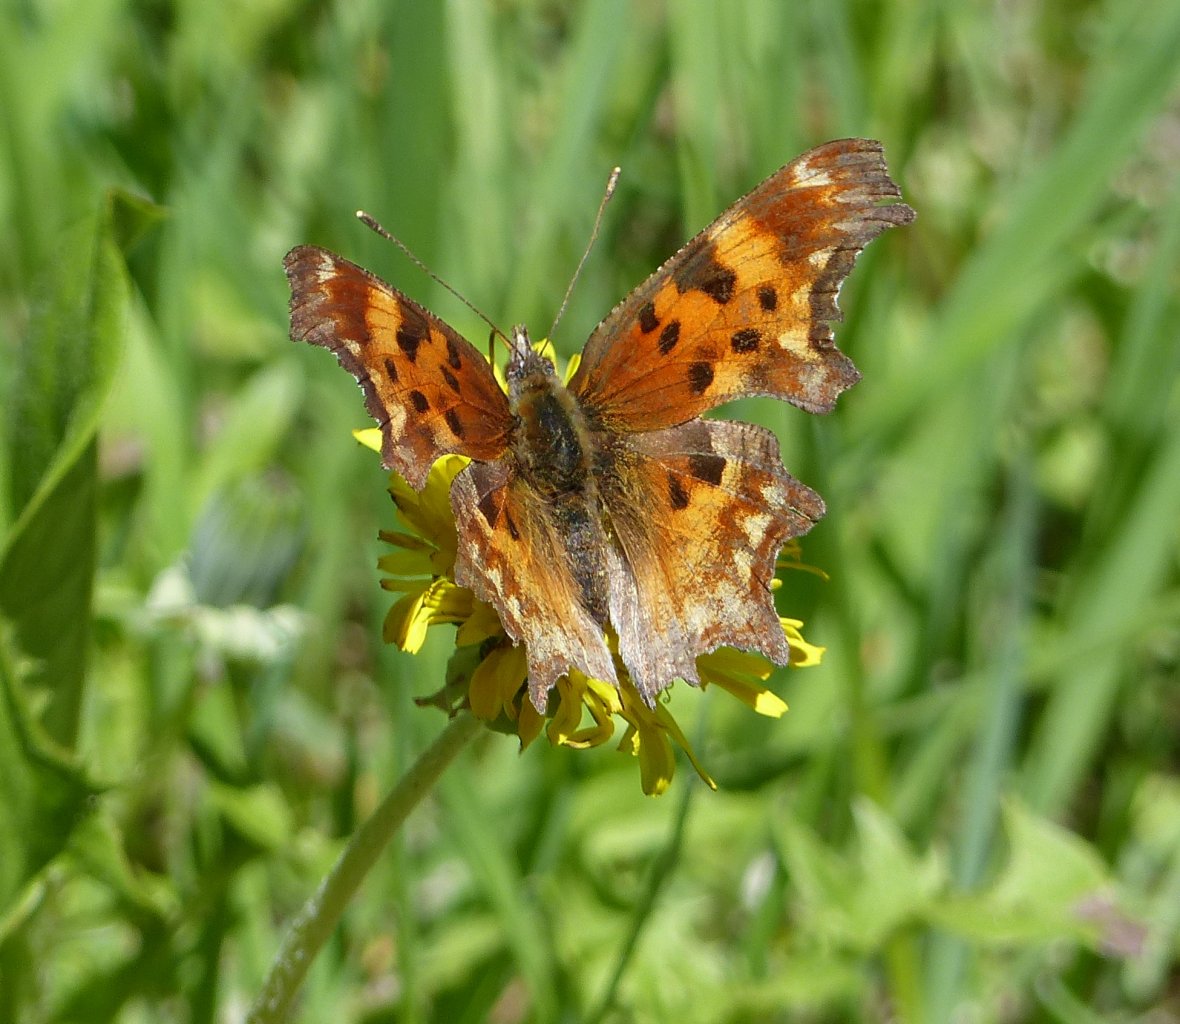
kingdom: Animalia
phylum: Arthropoda
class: Insecta
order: Lepidoptera
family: Nymphalidae
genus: Polygonia
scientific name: Polygonia gracilis
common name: Hoary Comma
